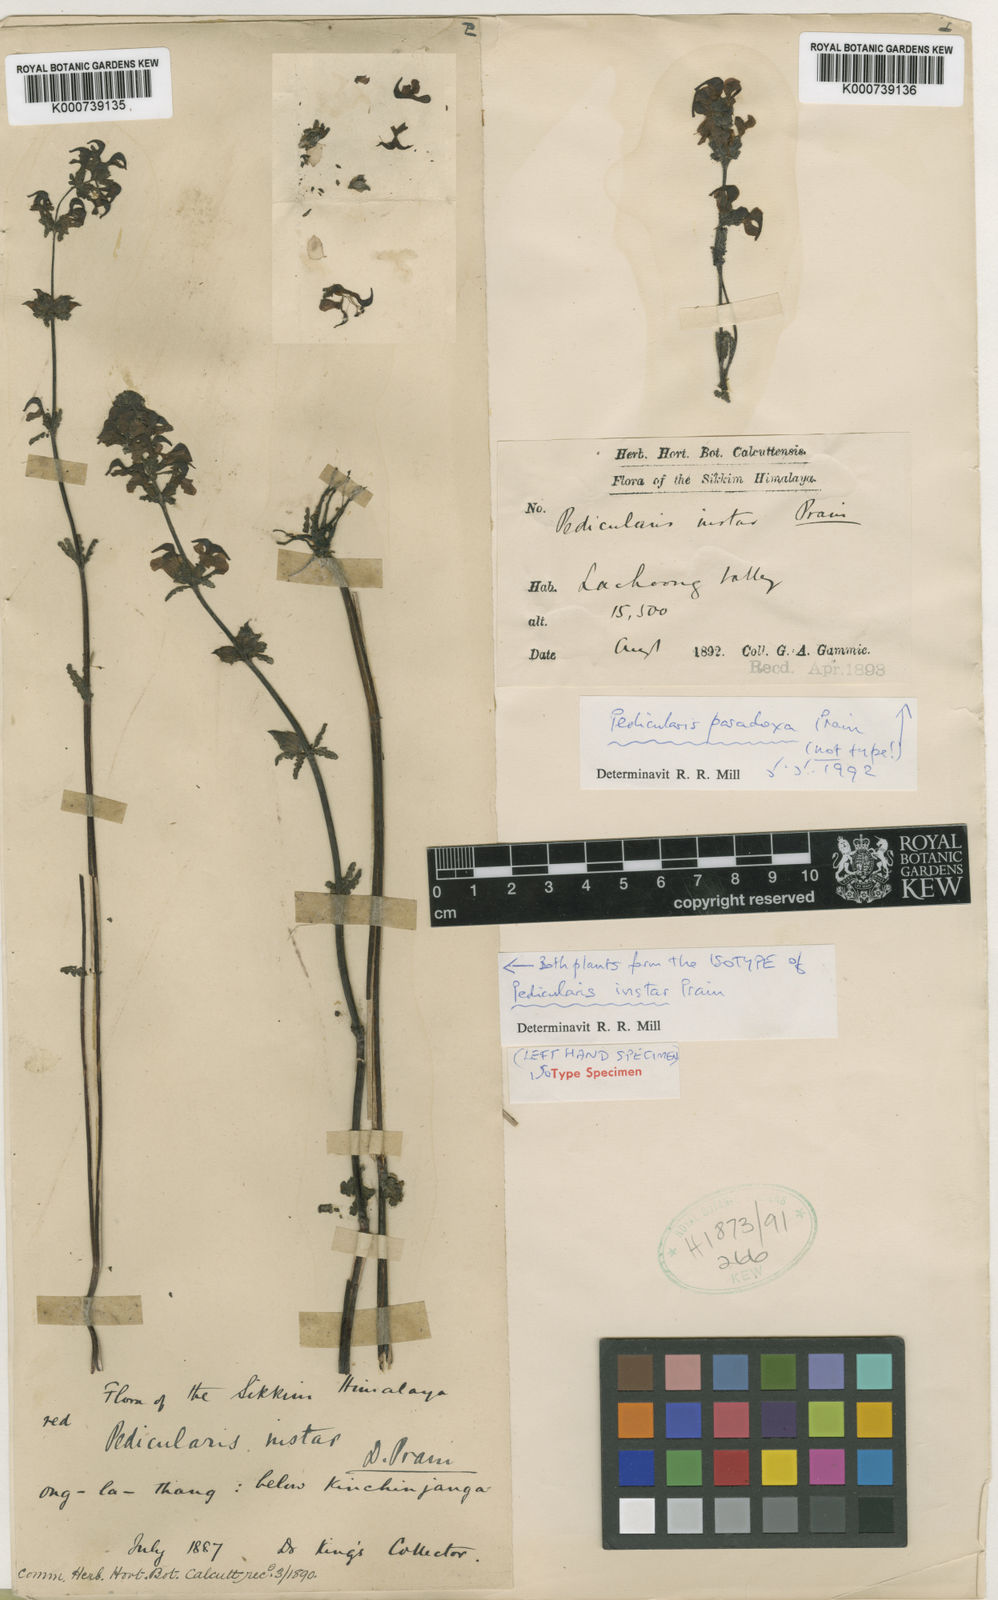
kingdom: Plantae
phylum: Tracheophyta
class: Magnoliopsida
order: Lamiales
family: Orobanchaceae
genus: Pedicularis
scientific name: Pedicularis
